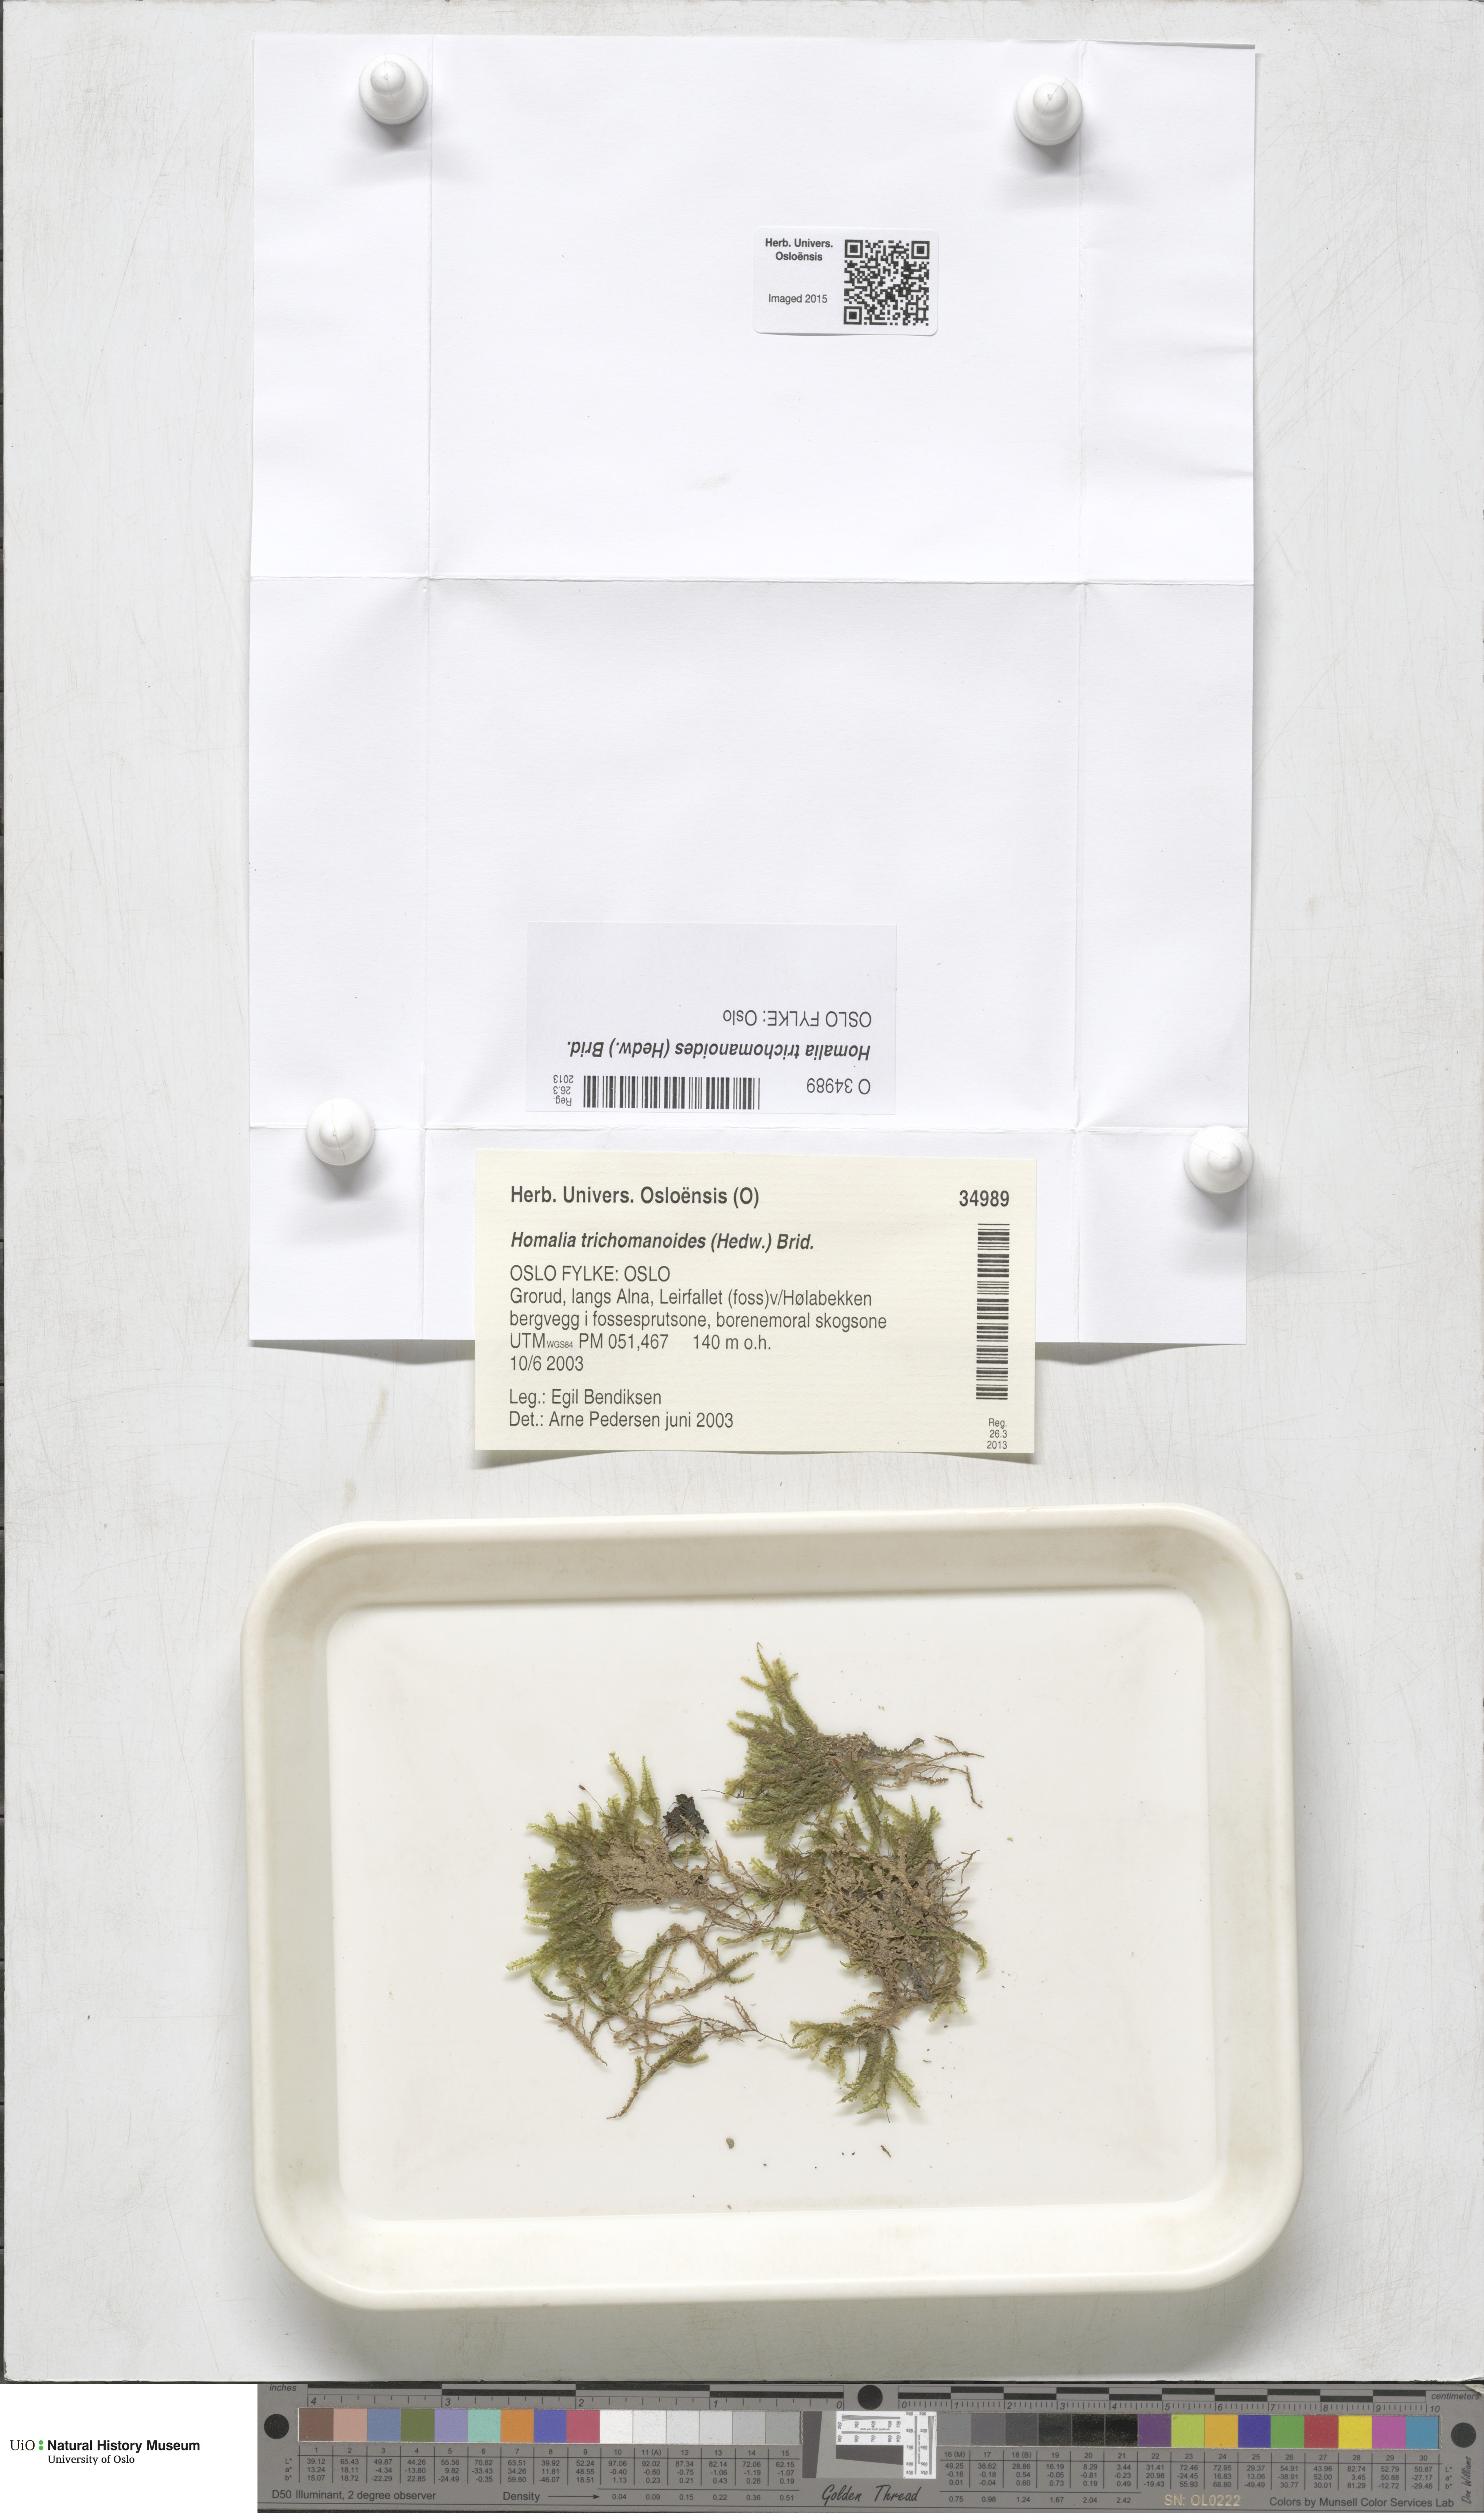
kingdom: Plantae
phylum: Bryophyta
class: Bryopsida
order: Hypnales
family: Neckeraceae
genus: Homalia
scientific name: Homalia trichomanoides
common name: Lime homalia moss
